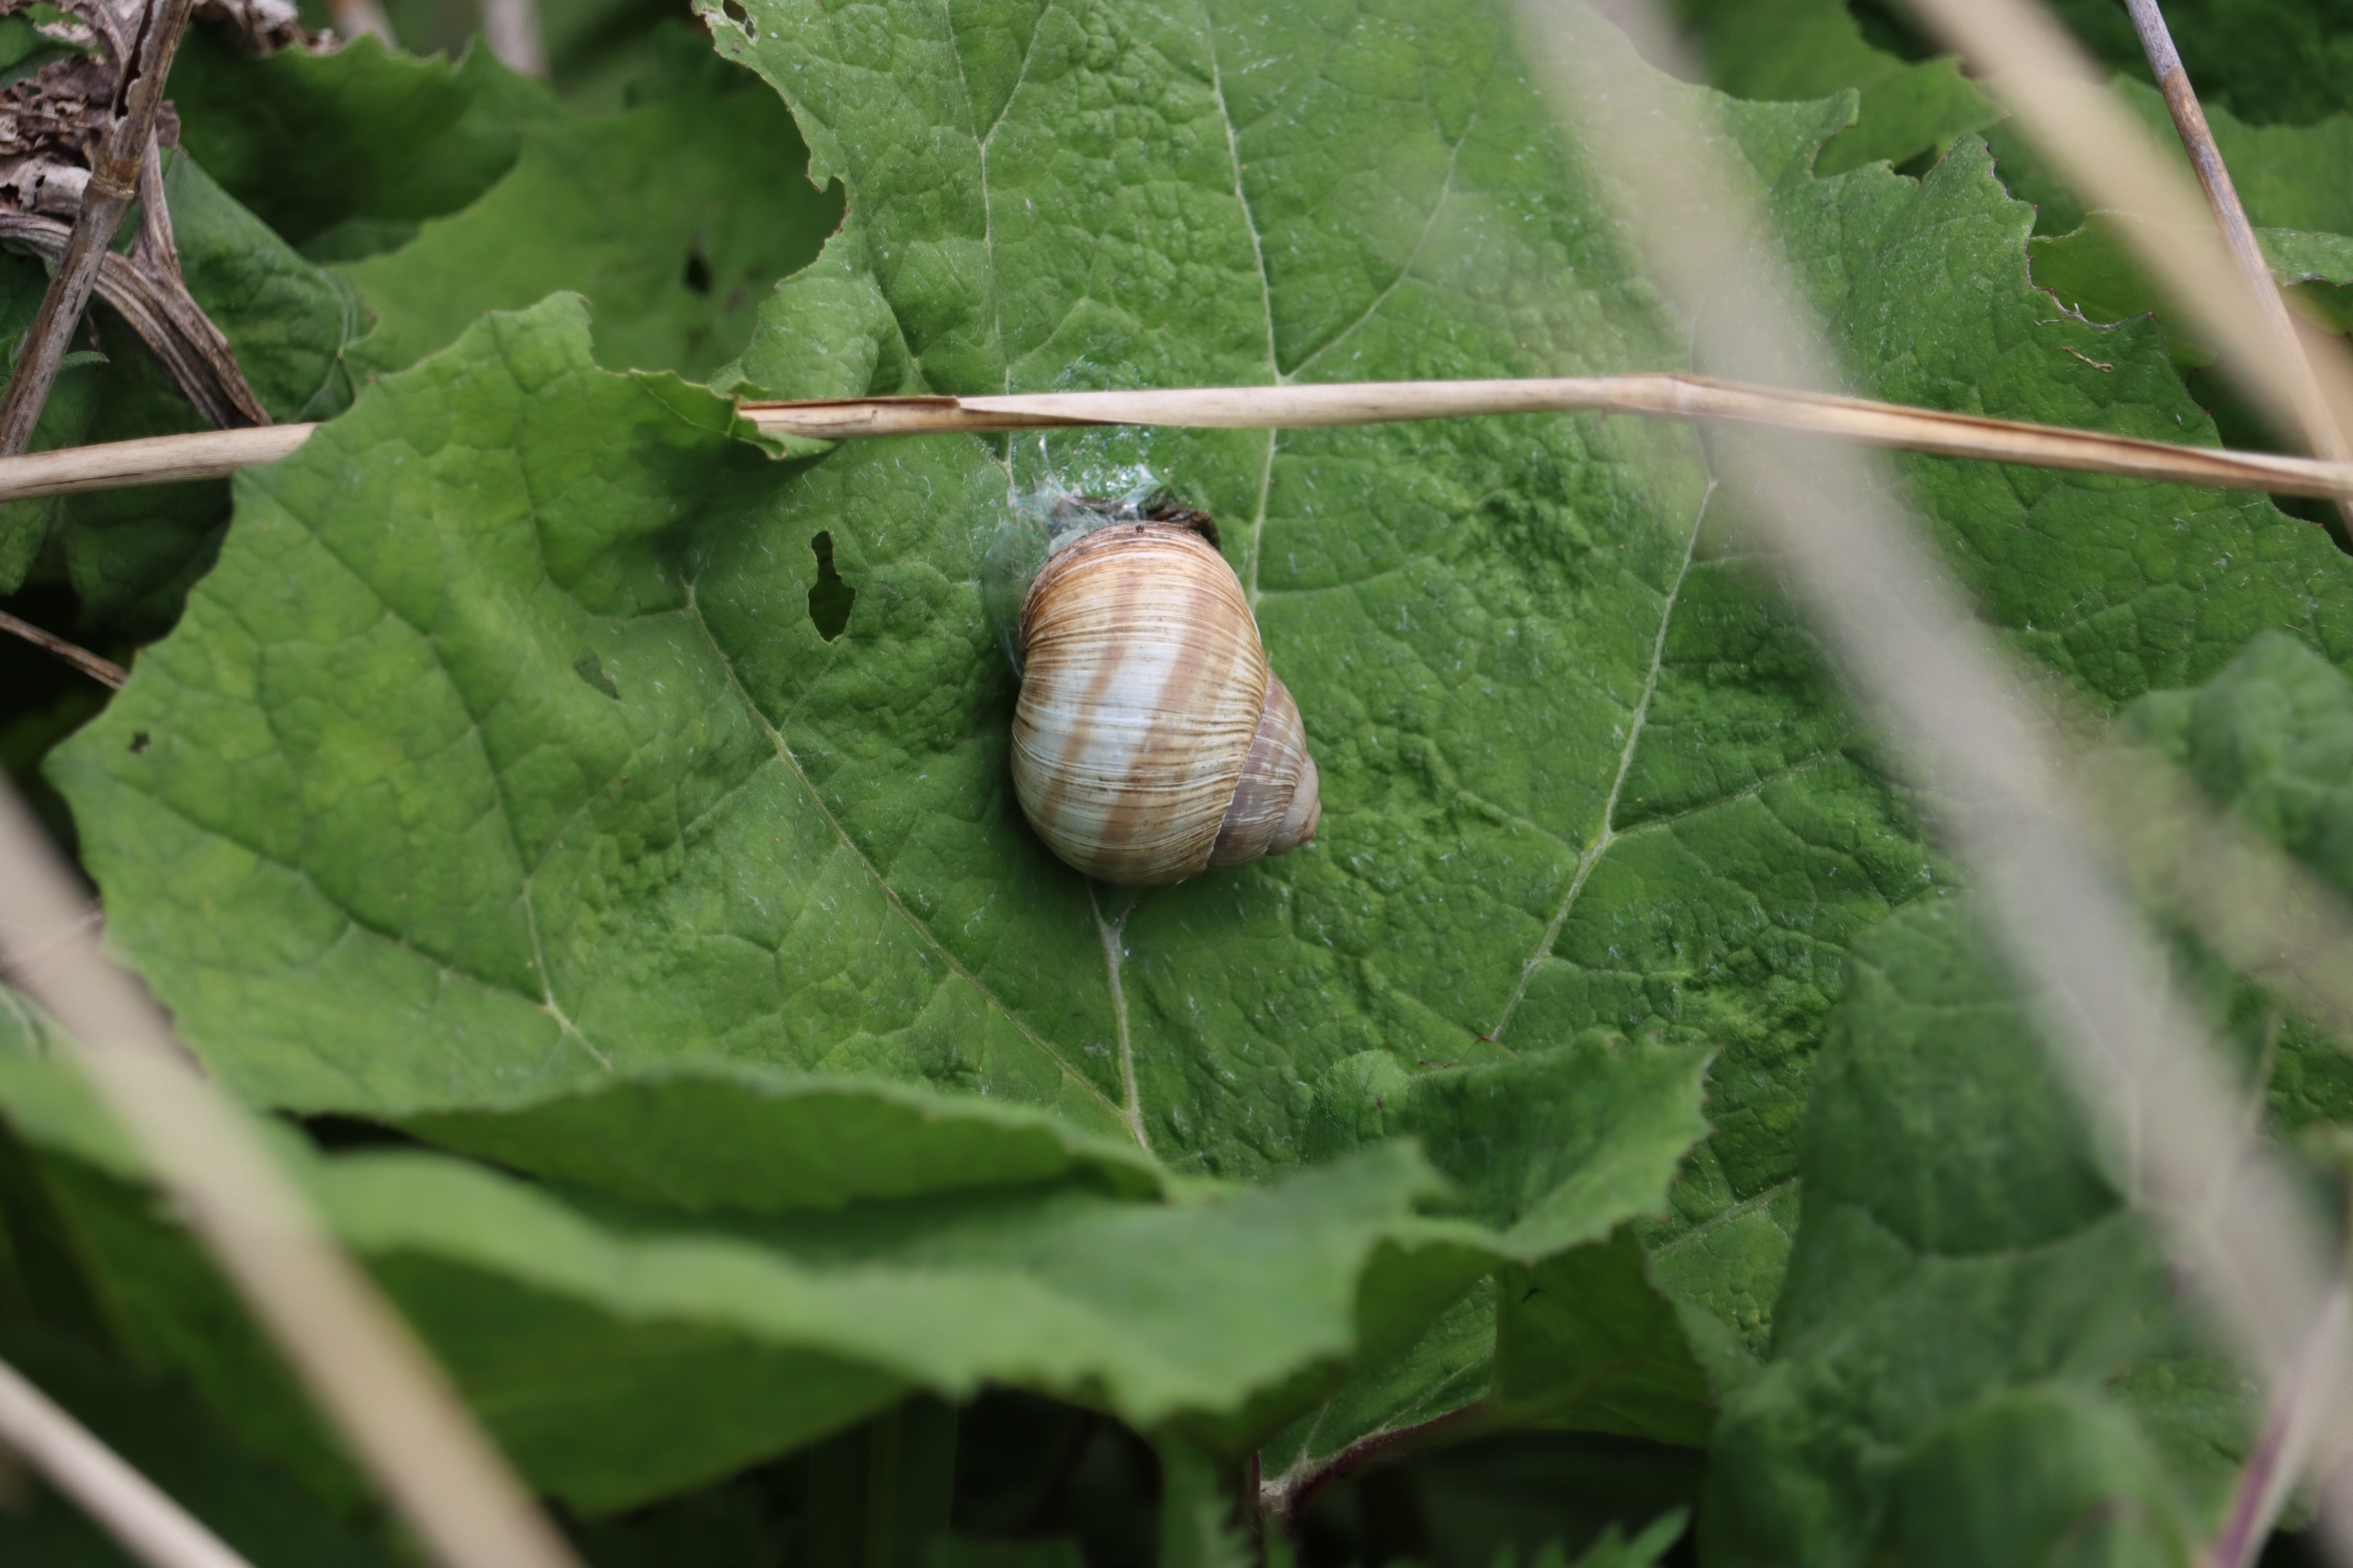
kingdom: Animalia
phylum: Mollusca
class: Gastropoda
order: Stylommatophora
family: Helicidae
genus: Helix
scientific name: Helix pomatia
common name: Vinbjergsnegl
